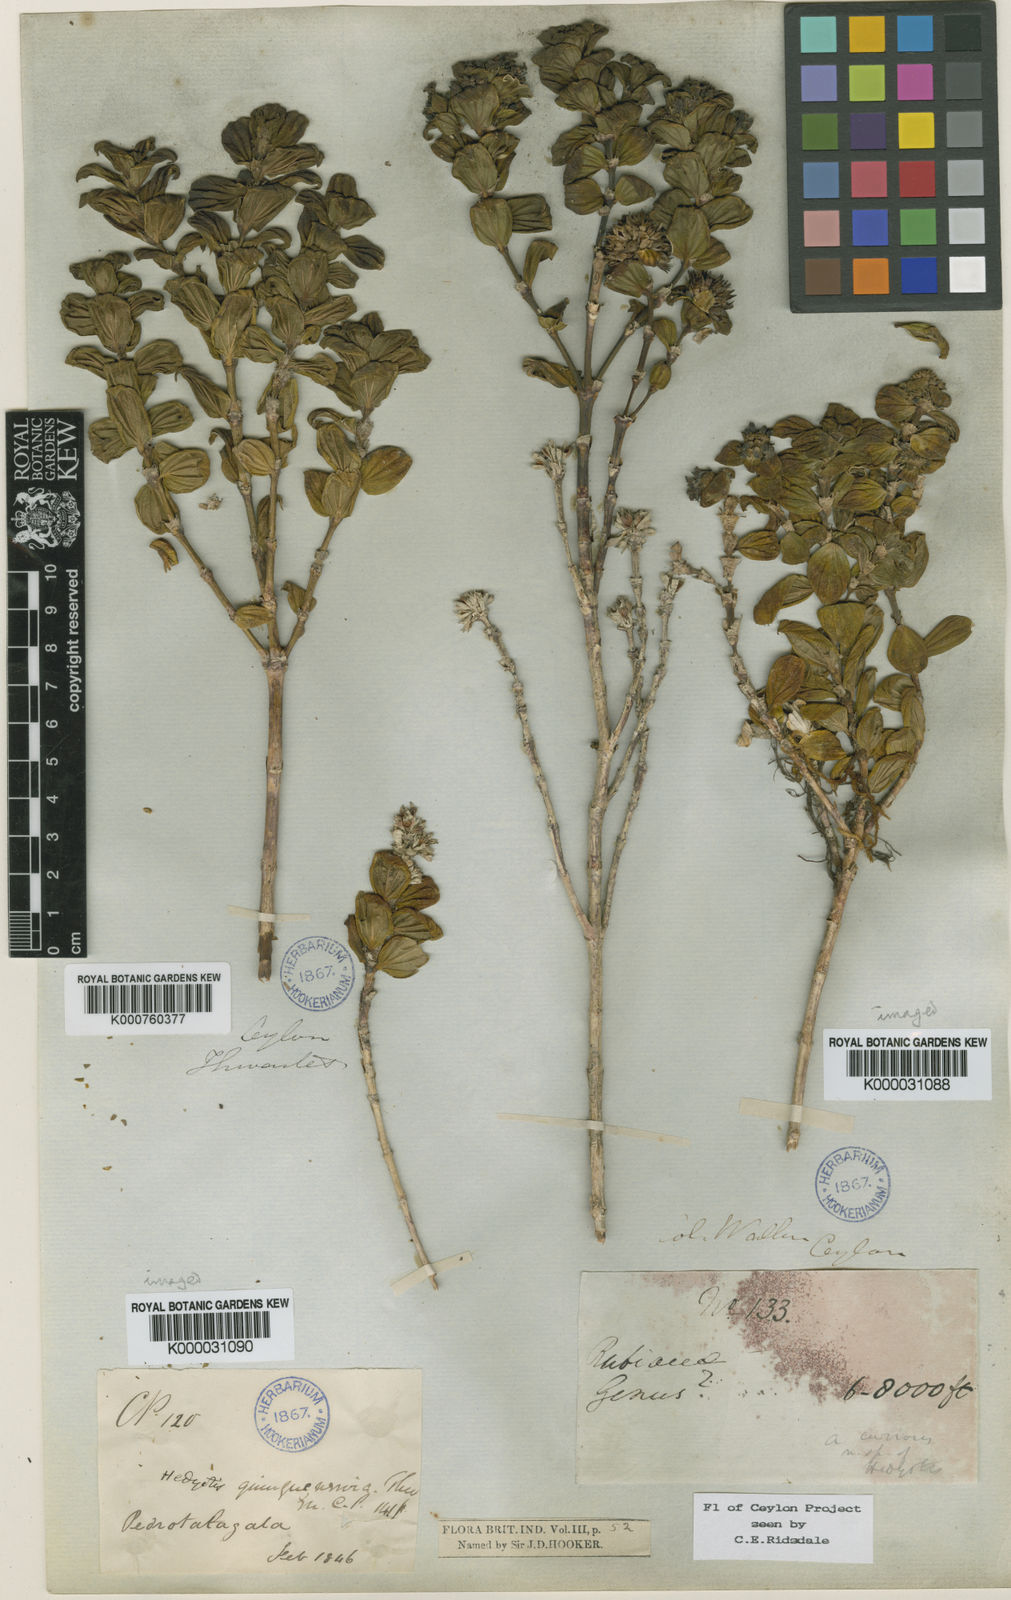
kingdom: Plantae
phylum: Tracheophyta
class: Magnoliopsida
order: Gentianales
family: Rubiaceae
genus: Hedyotis
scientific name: Hedyotis
